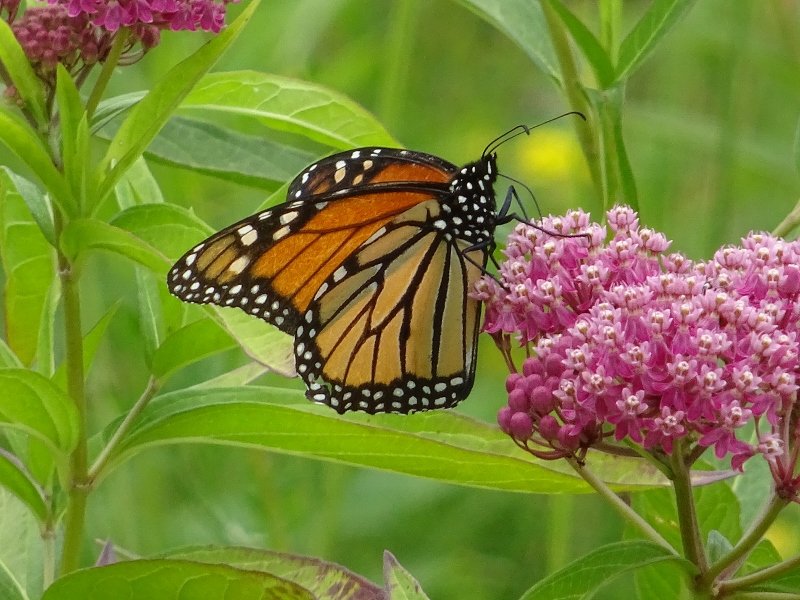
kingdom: Animalia
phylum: Arthropoda
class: Insecta
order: Lepidoptera
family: Nymphalidae
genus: Danaus
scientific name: Danaus plexippus
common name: Monarch
